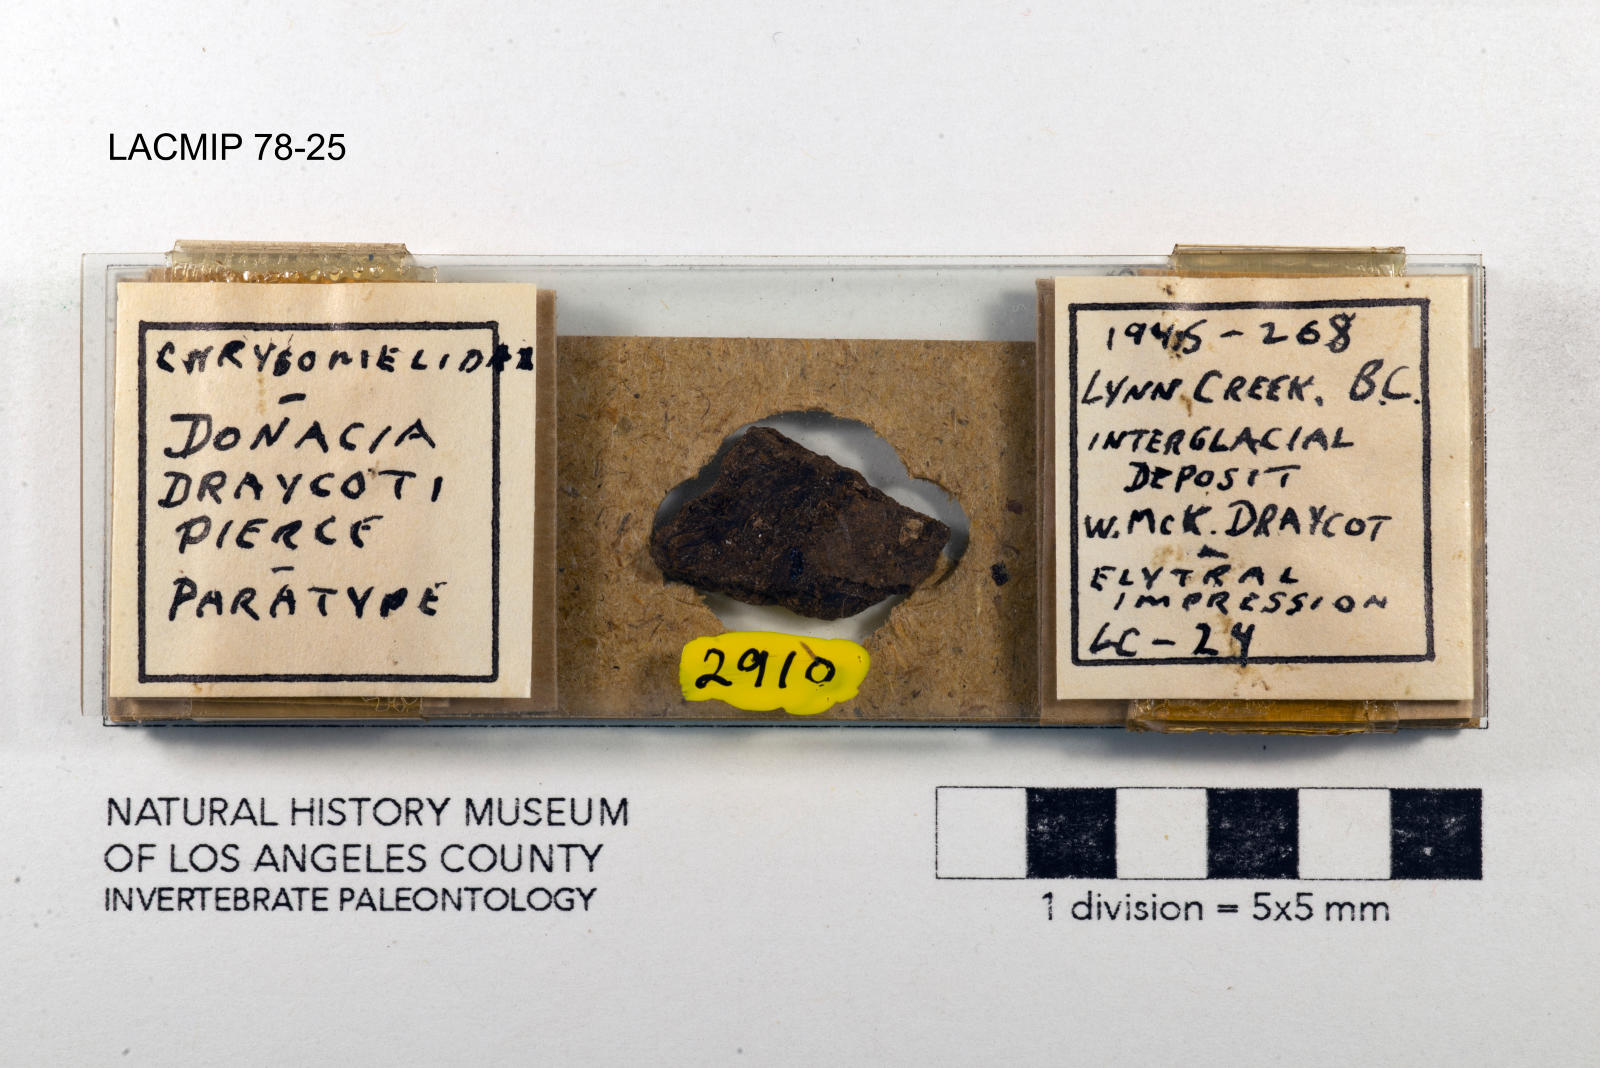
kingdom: Animalia
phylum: Arthropoda
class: Insecta
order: Coleoptera
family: Chrysomelidae
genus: Donacia
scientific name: Donacia draycoti
